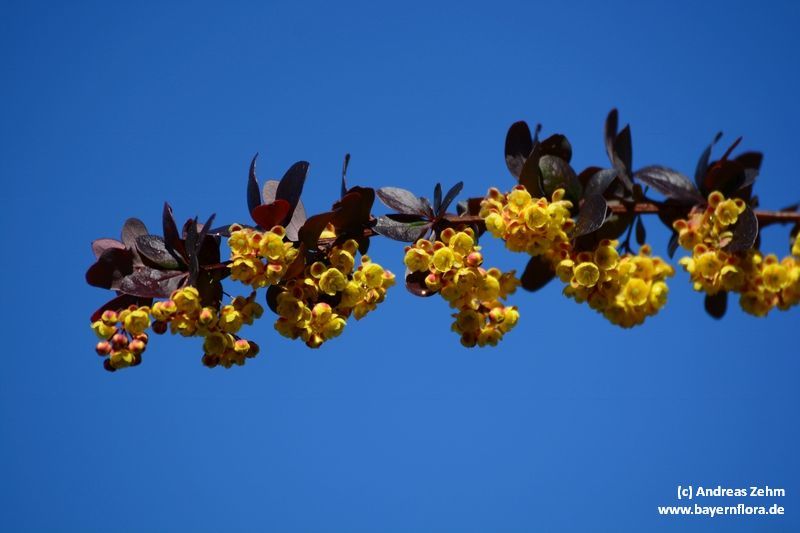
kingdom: Plantae
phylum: Tracheophyta
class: Magnoliopsida
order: Ranunculales
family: Berberidaceae
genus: Berberis
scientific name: Berberis thunbergii
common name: Japanese barberry
